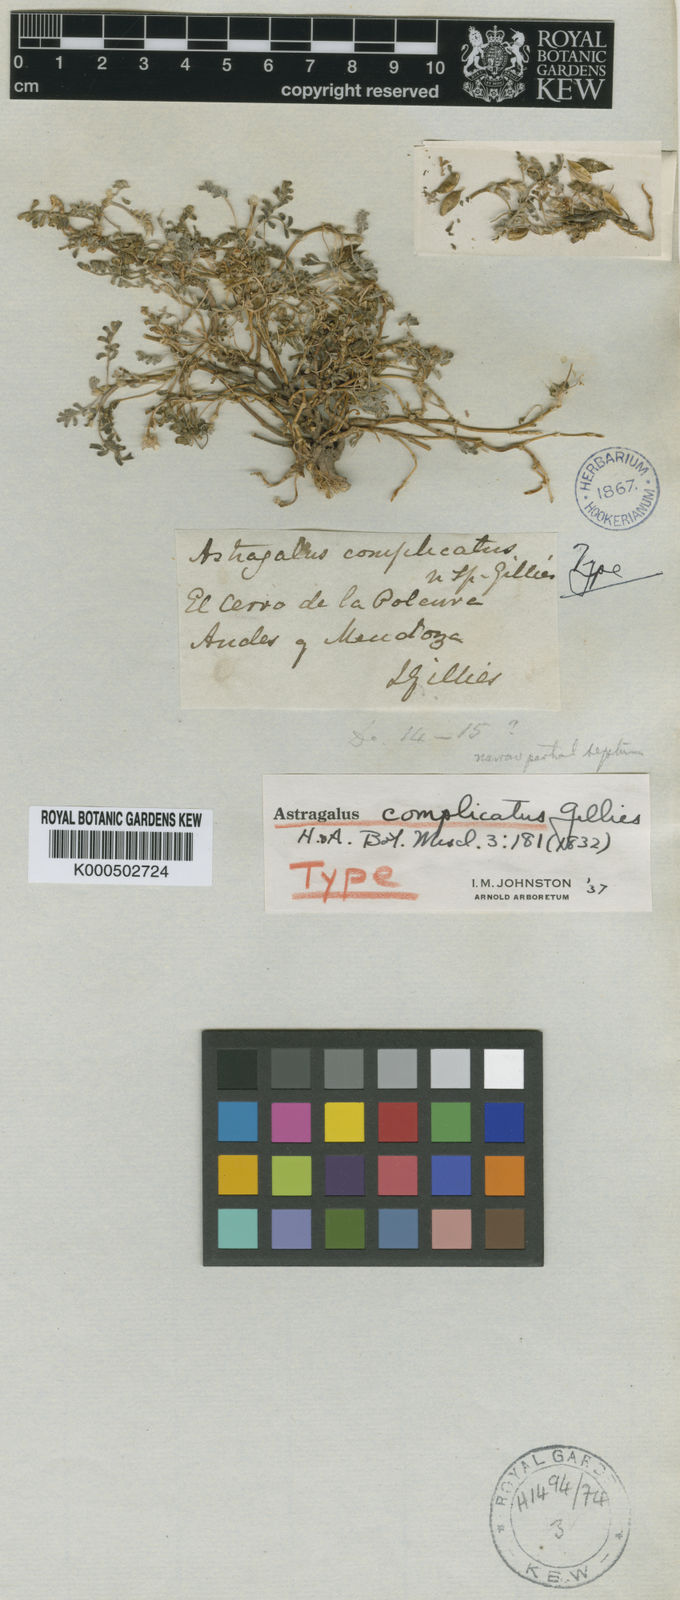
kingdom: Plantae
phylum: Tracheophyta
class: Magnoliopsida
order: Fabales
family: Fabaceae
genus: Astragalus
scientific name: Astragalus
